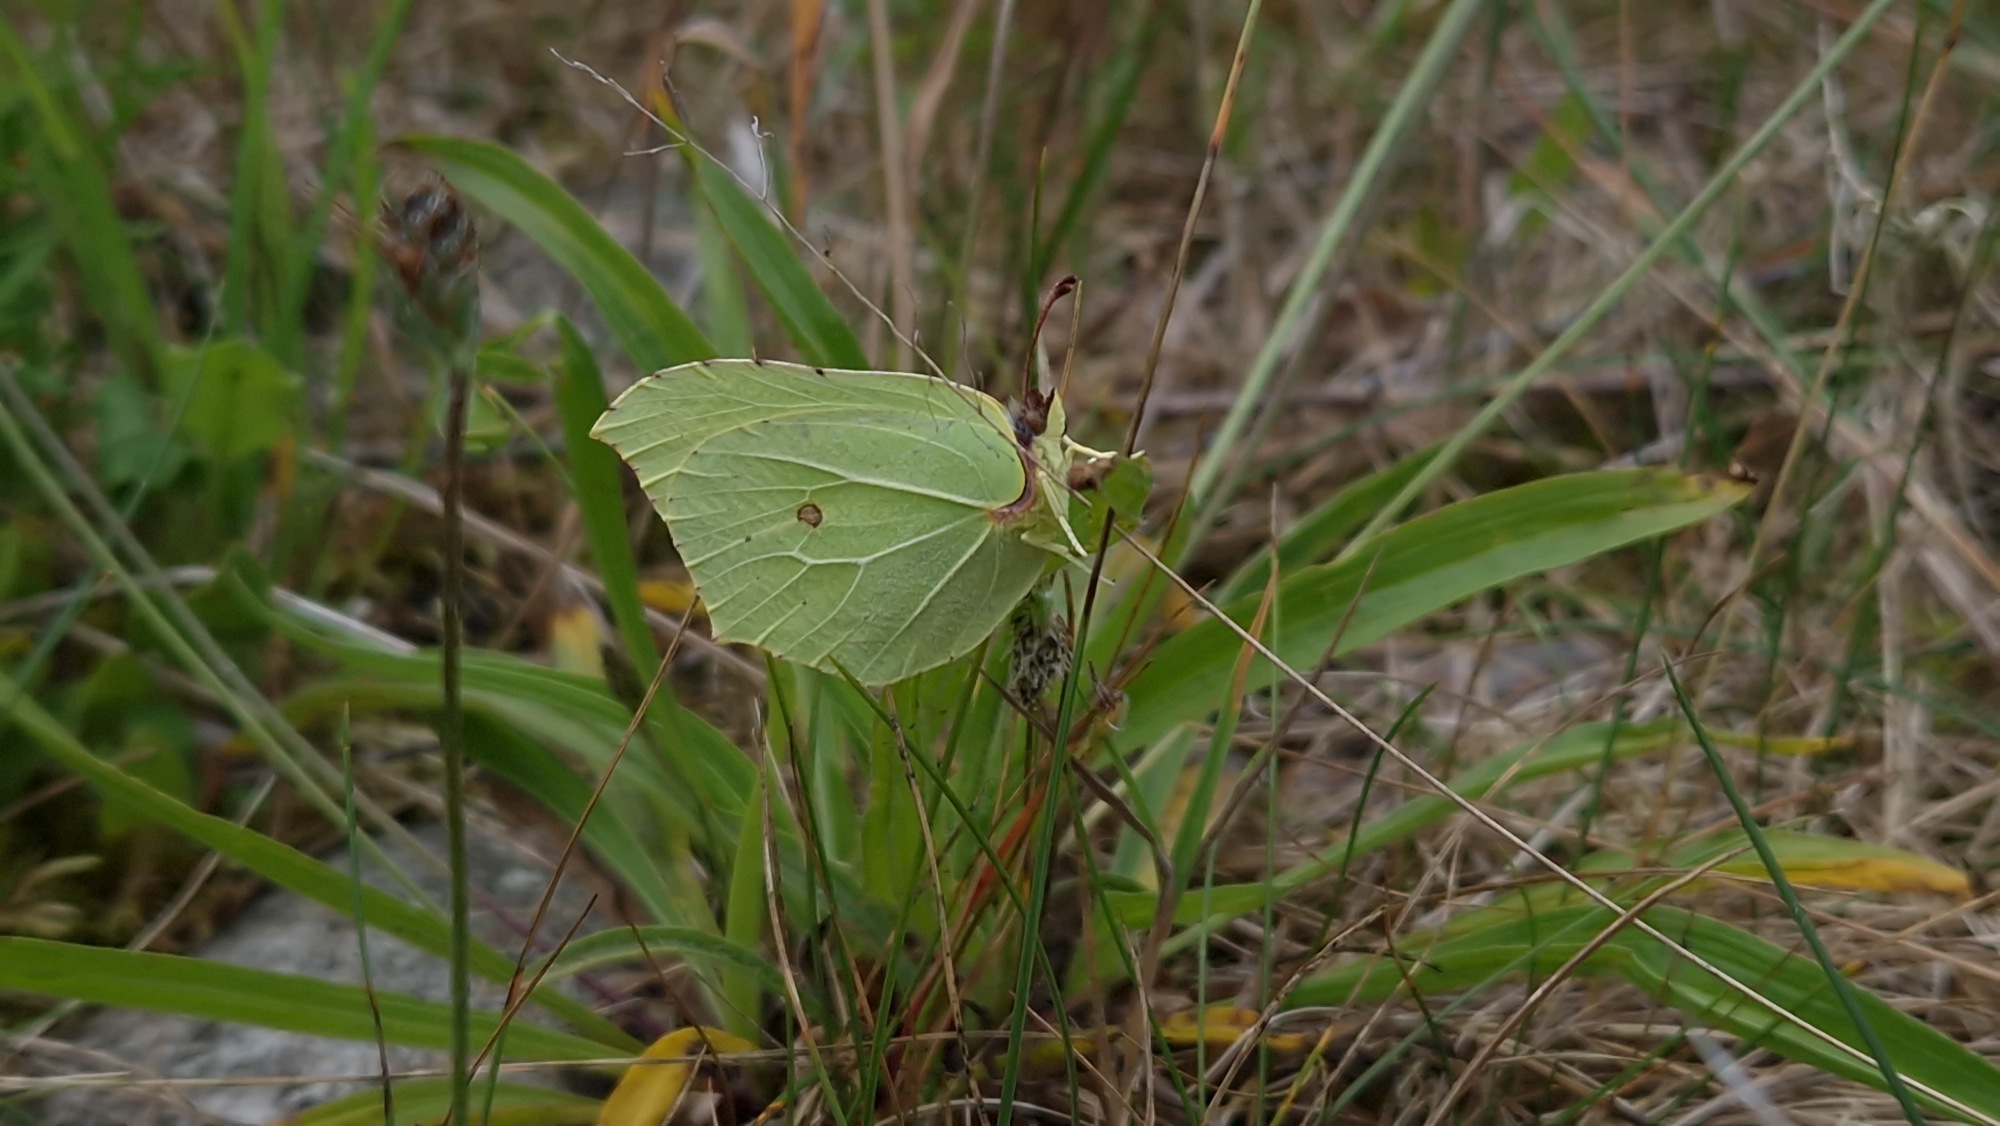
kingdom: Animalia
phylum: Arthropoda
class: Insecta
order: Lepidoptera
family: Pieridae
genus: Gonepteryx
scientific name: Gonepteryx rhamni
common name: Citronsommerfugl
